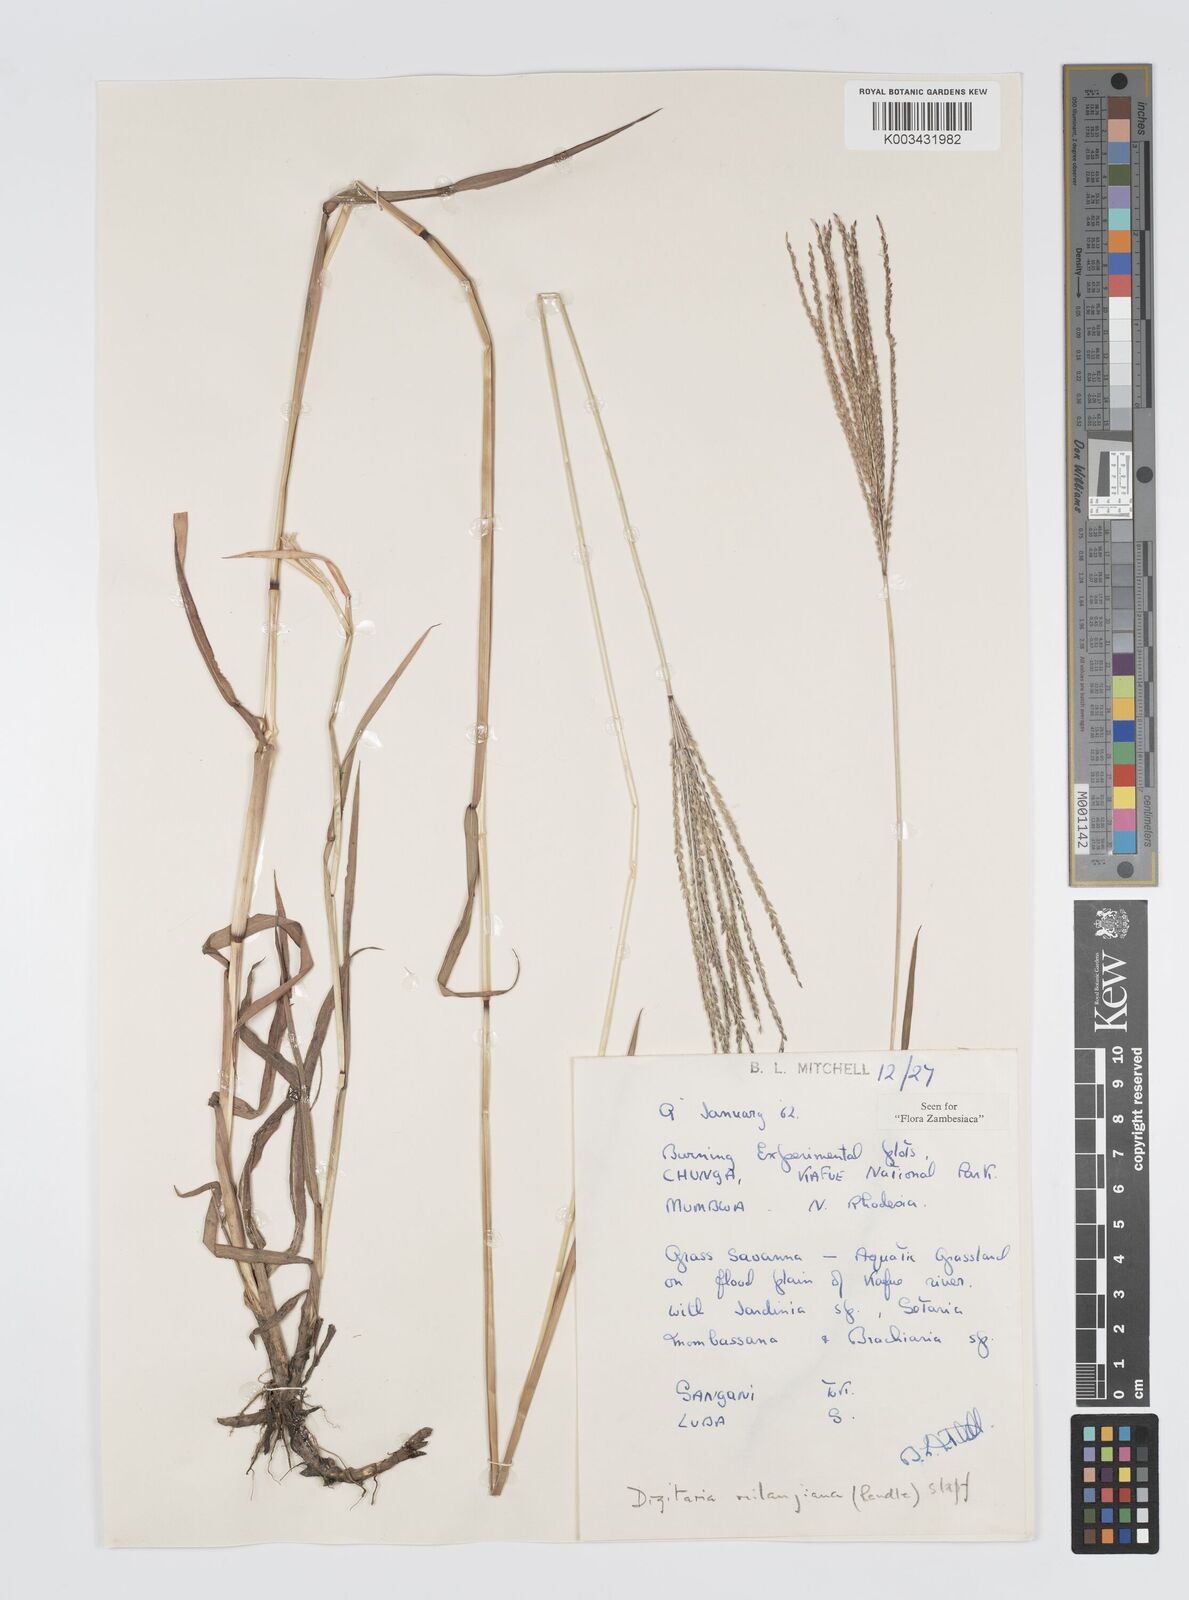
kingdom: Plantae
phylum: Tracheophyta
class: Liliopsida
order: Poales
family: Poaceae
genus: Digitaria
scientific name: Digitaria milanjiana
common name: Madagascar crabgrass
